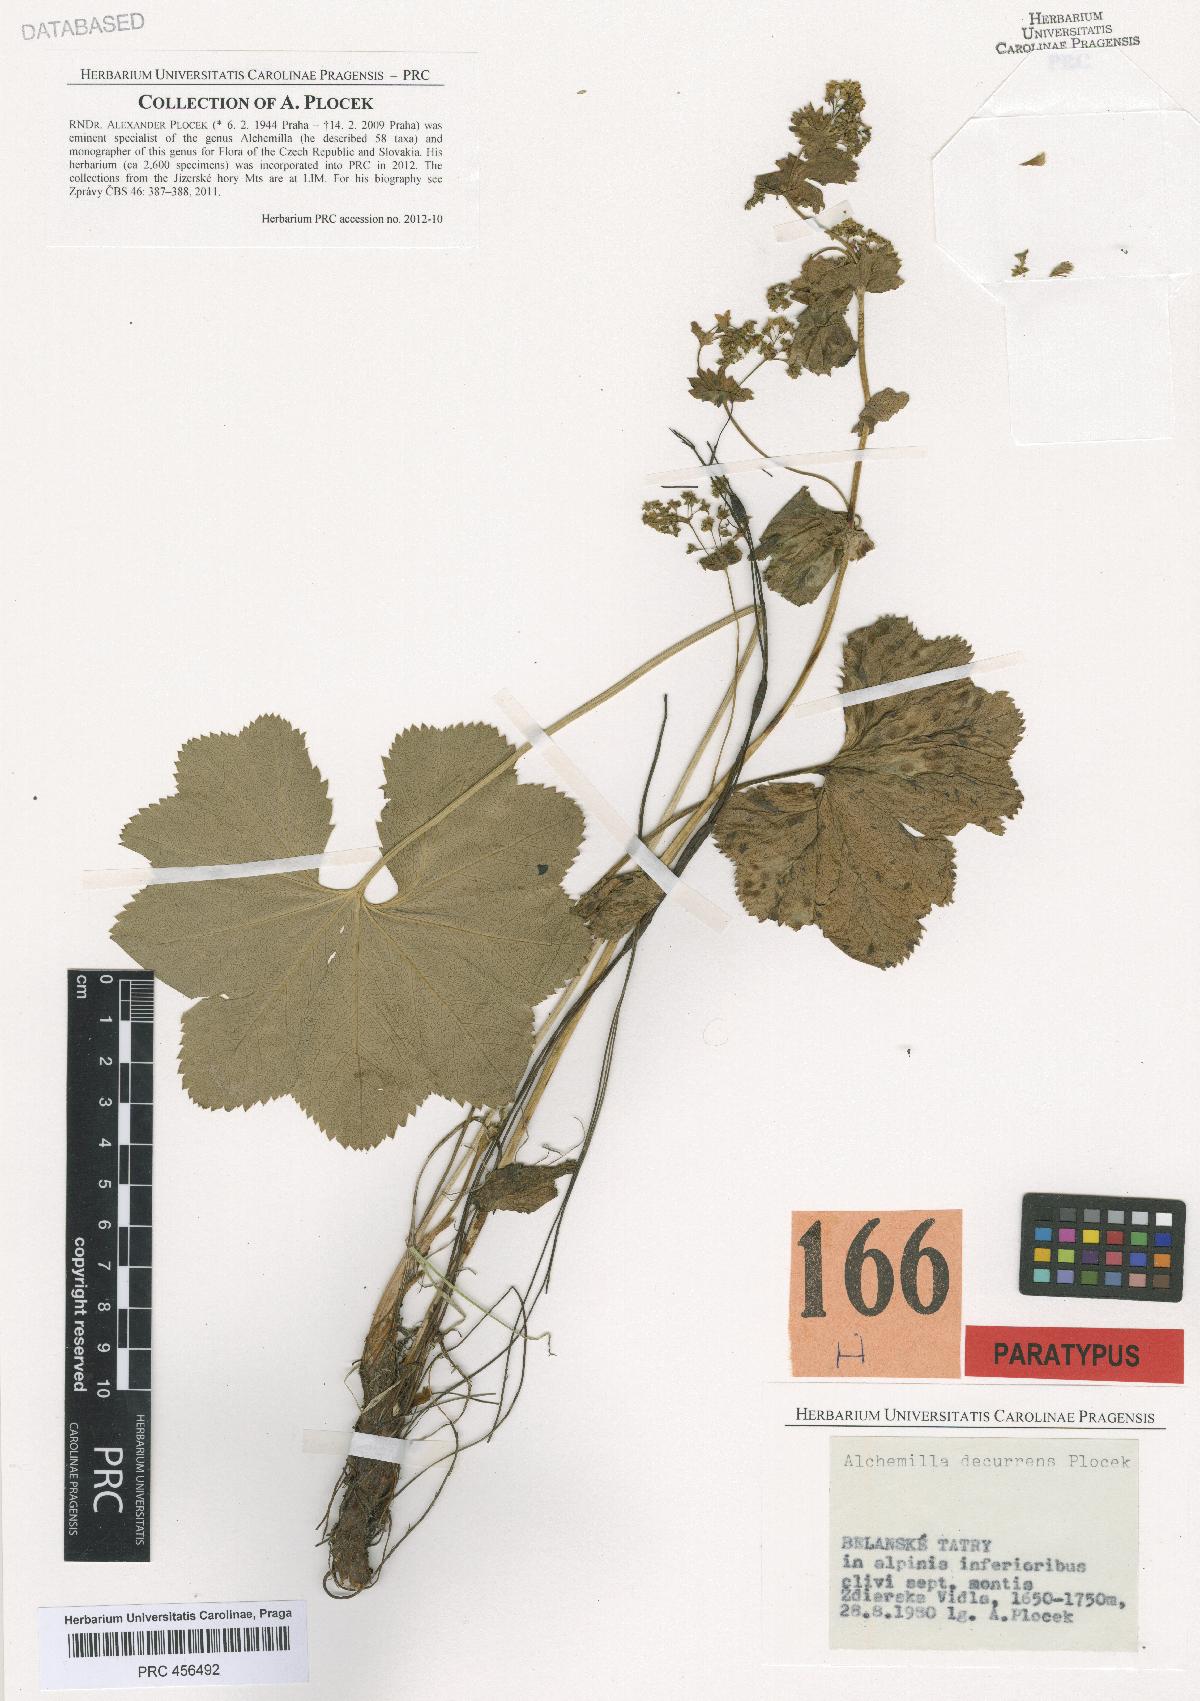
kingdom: Plantae
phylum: Tracheophyta
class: Magnoliopsida
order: Rosales
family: Rosaceae
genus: Alchemilla
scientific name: Alchemilla decurrens
